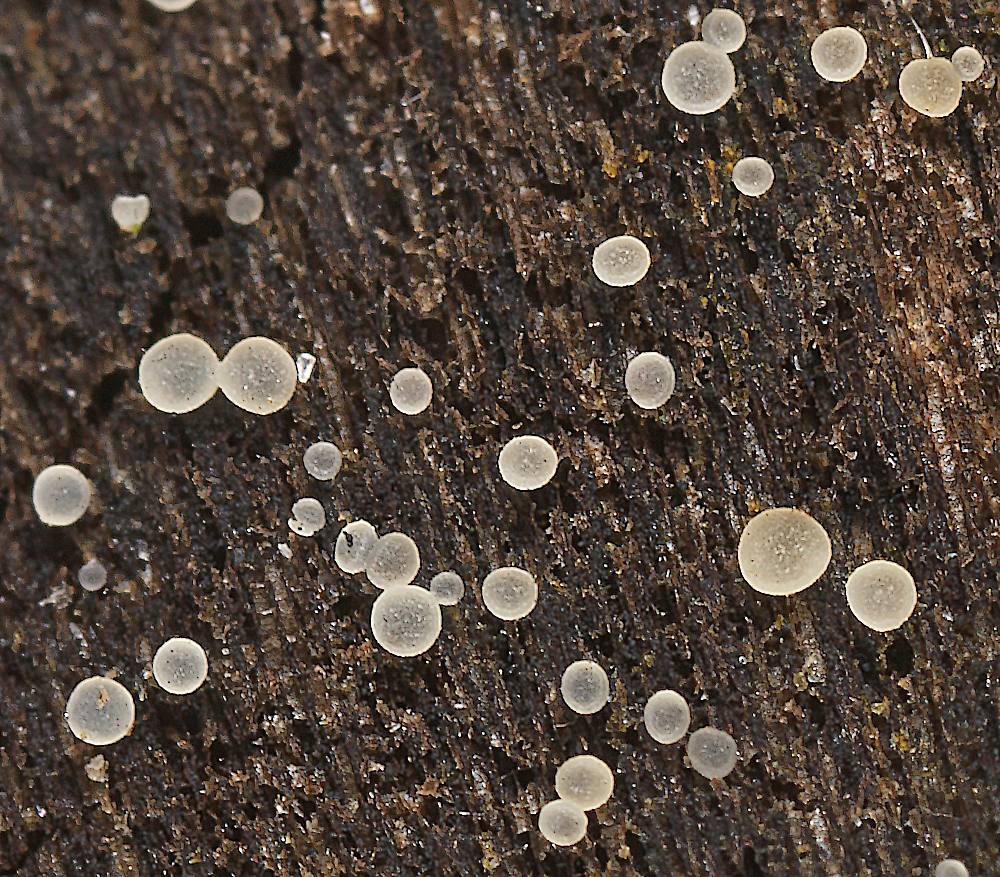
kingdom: Fungi
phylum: Ascomycota
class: Leotiomycetes
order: Helotiales
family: Hyaloscyphaceae
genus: Hyaloscypha
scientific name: Hyaloscypha minuta
